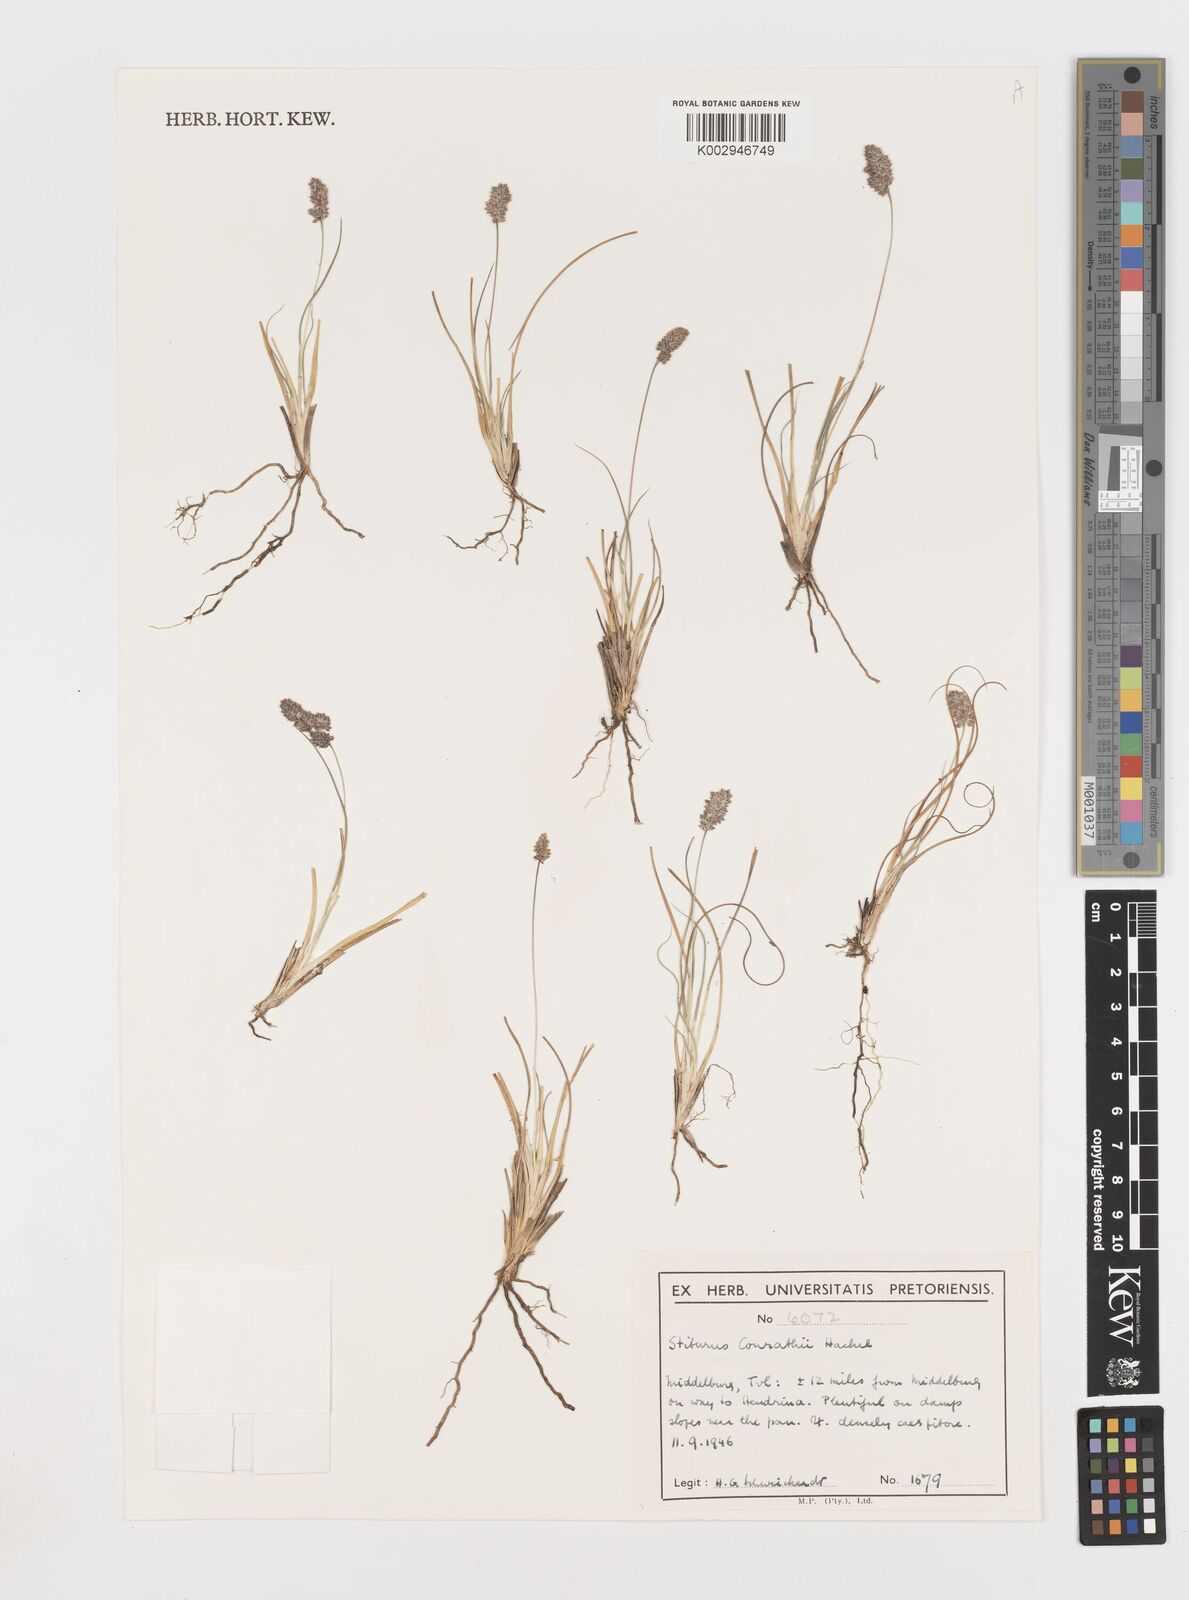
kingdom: Plantae
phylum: Tracheophyta
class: Liliopsida
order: Poales
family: Poaceae
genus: Stiburus
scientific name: Stiburus conrathii
